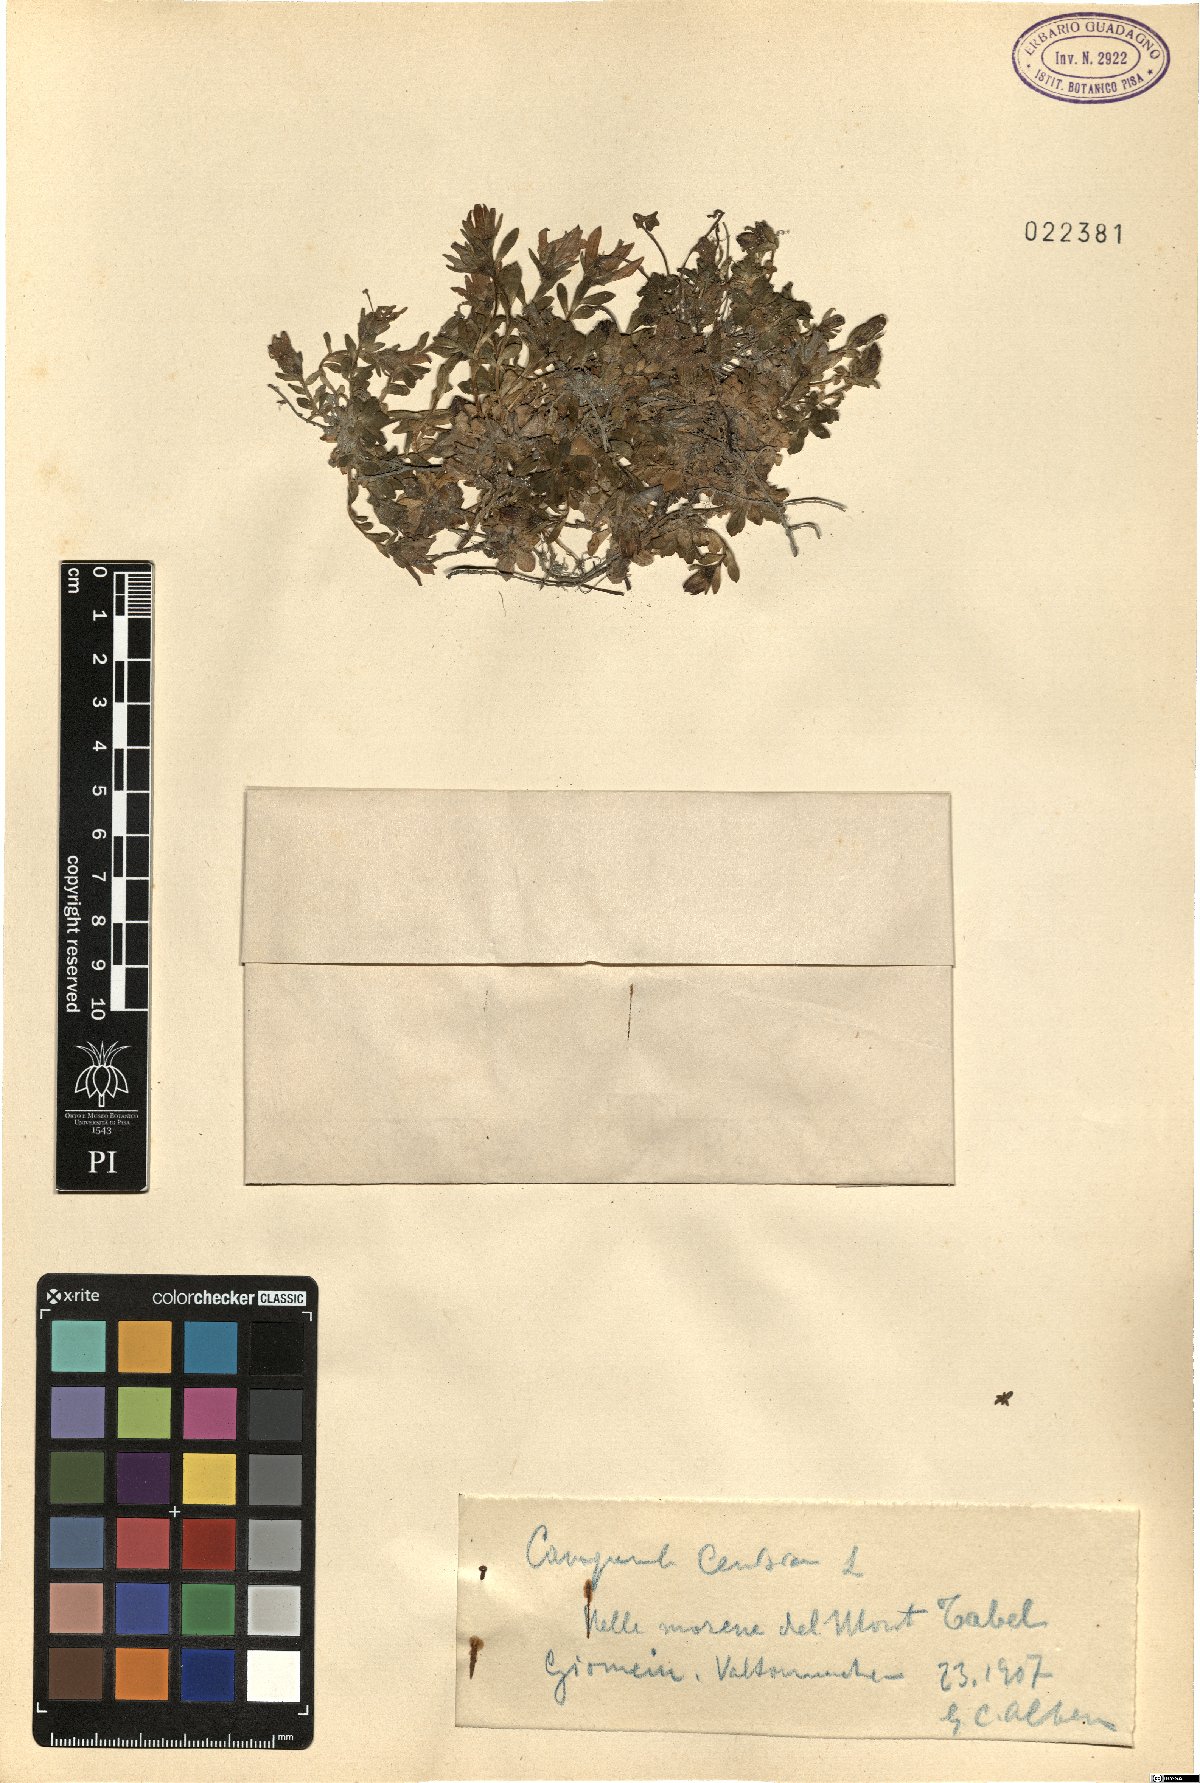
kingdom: Plantae
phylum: Tracheophyta
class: Magnoliopsida
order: Asterales
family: Campanulaceae
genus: Campanula
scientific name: Campanula cenisia
